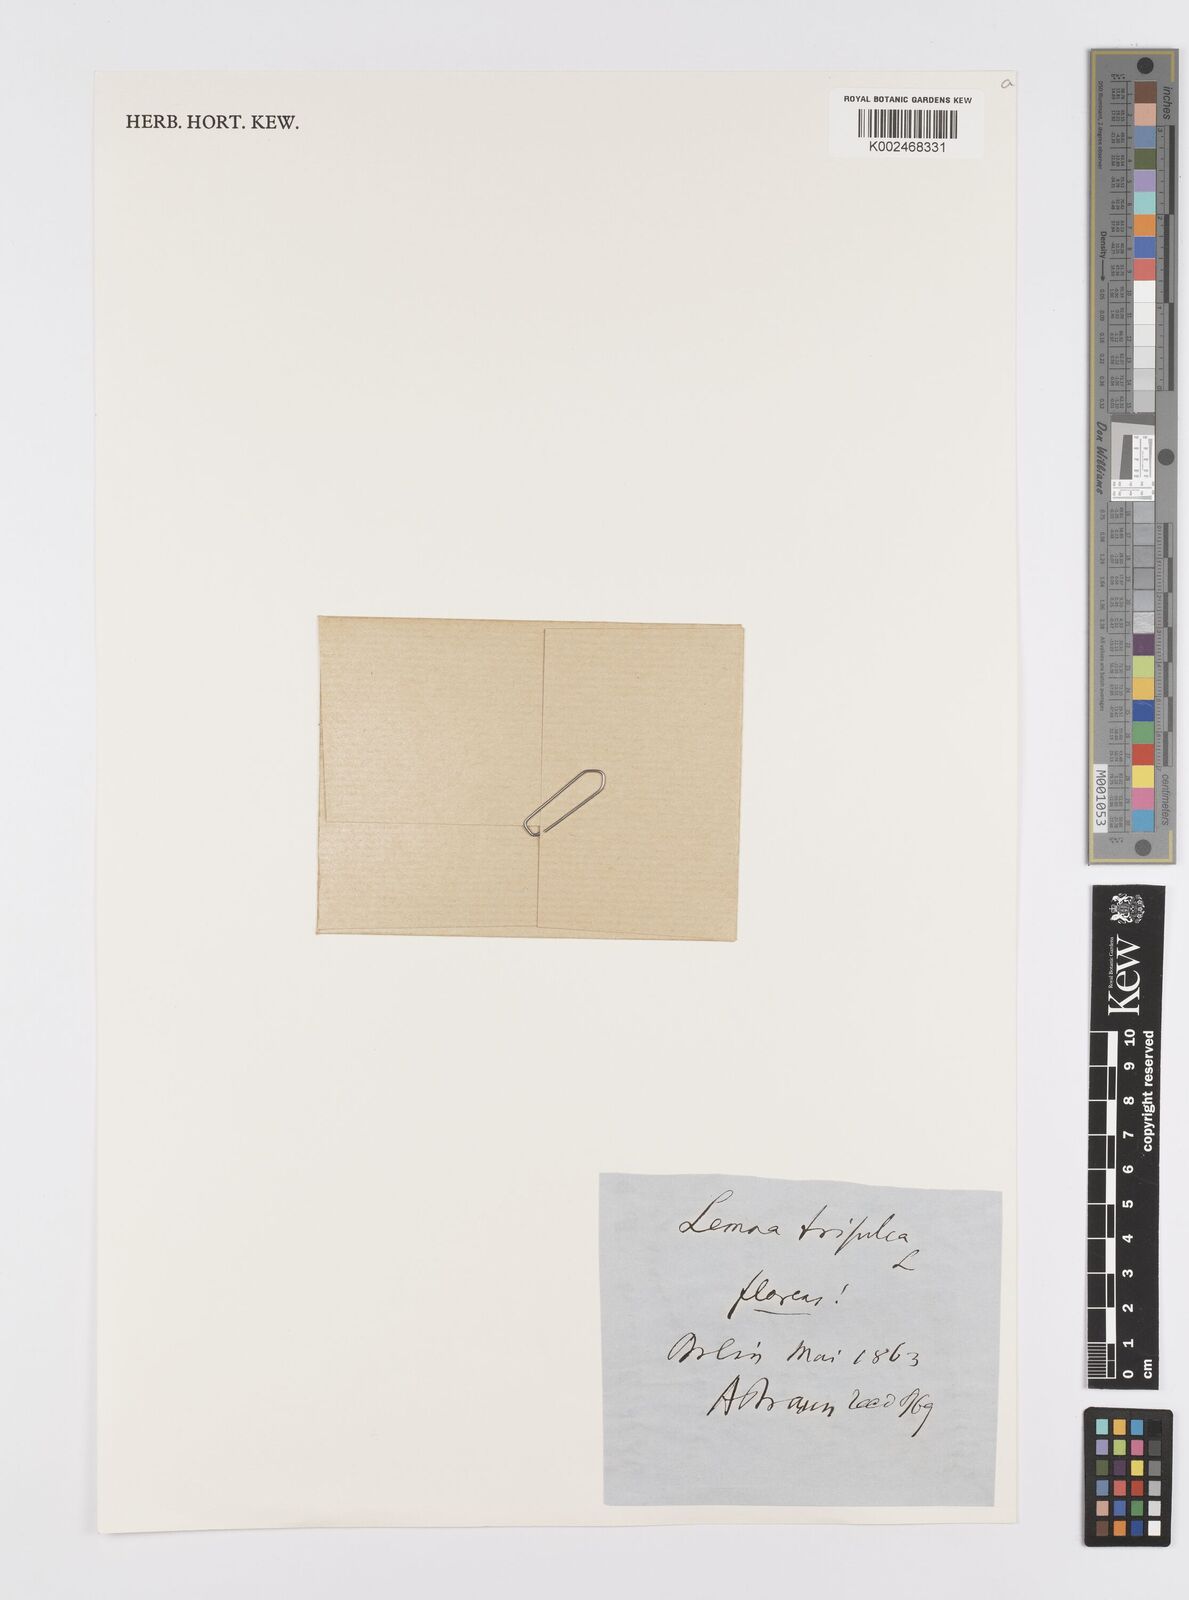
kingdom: Plantae
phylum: Tracheophyta
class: Liliopsida
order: Alismatales
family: Araceae
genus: Lemna
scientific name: Lemna trisulca
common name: Ivy-leaved duckweed
